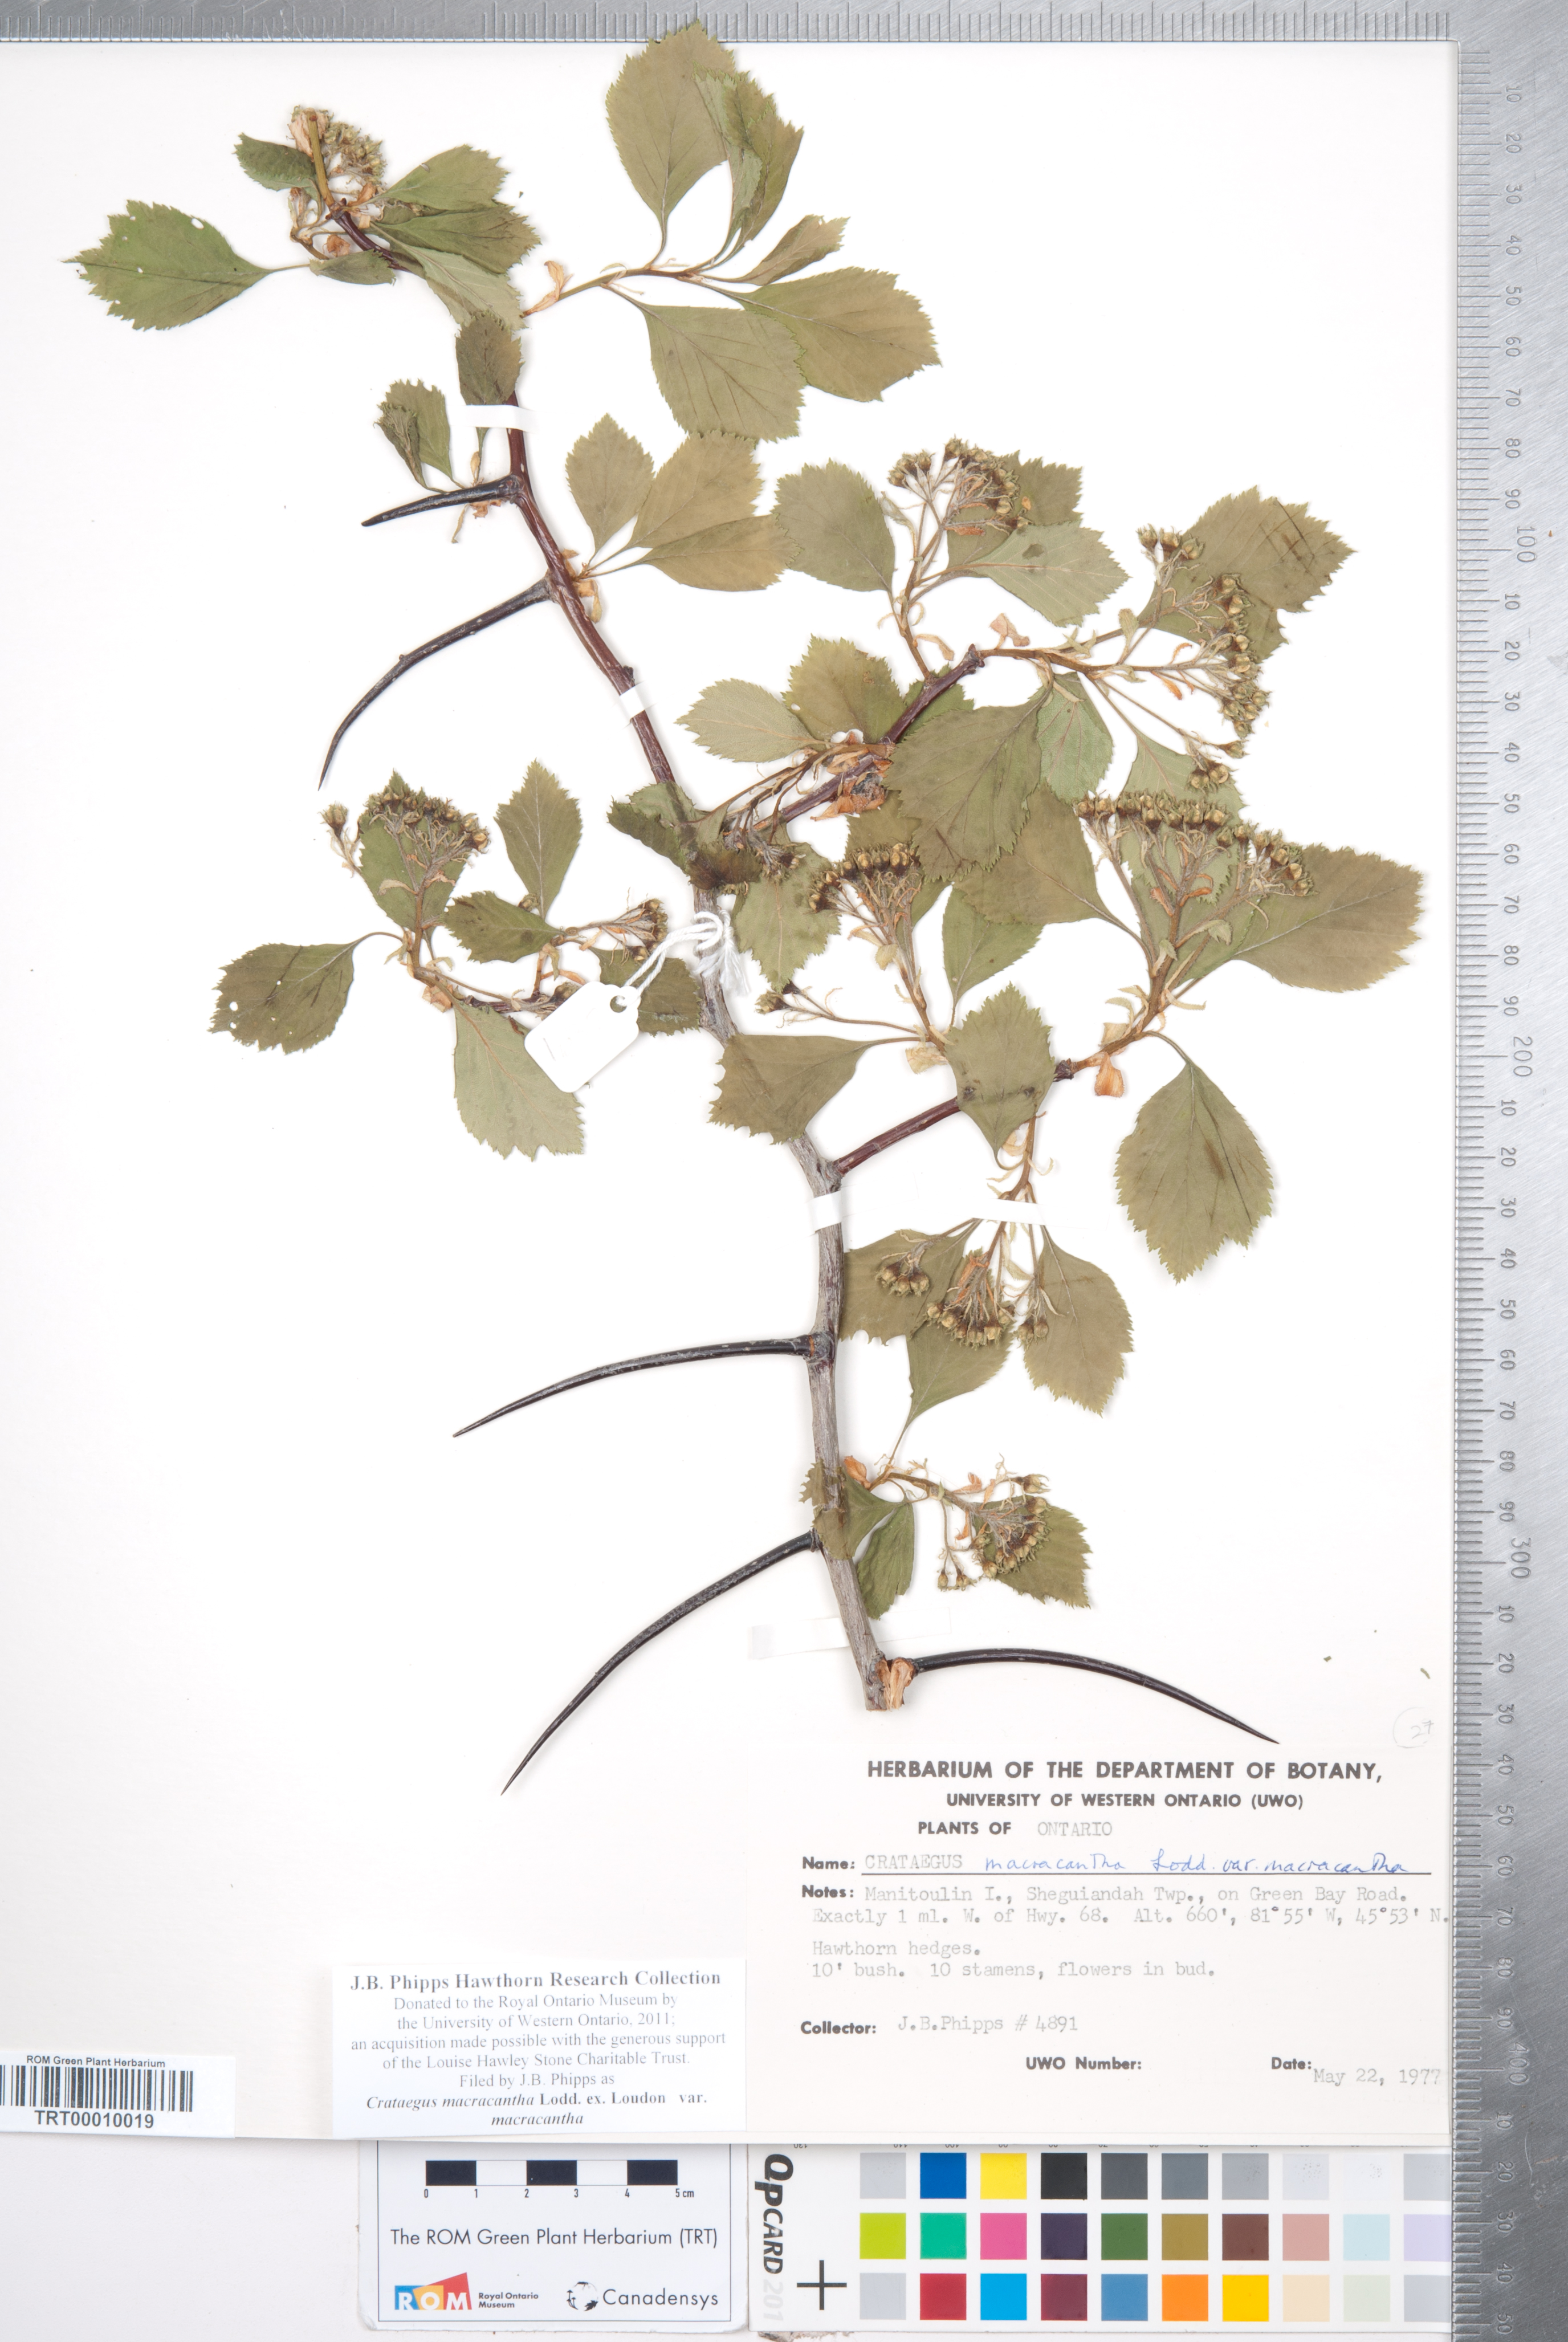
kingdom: Plantae
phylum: Tracheophyta
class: Magnoliopsida
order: Rosales
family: Rosaceae
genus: Crataegus
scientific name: Crataegus macracantha
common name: Large-thorn hawthorn
